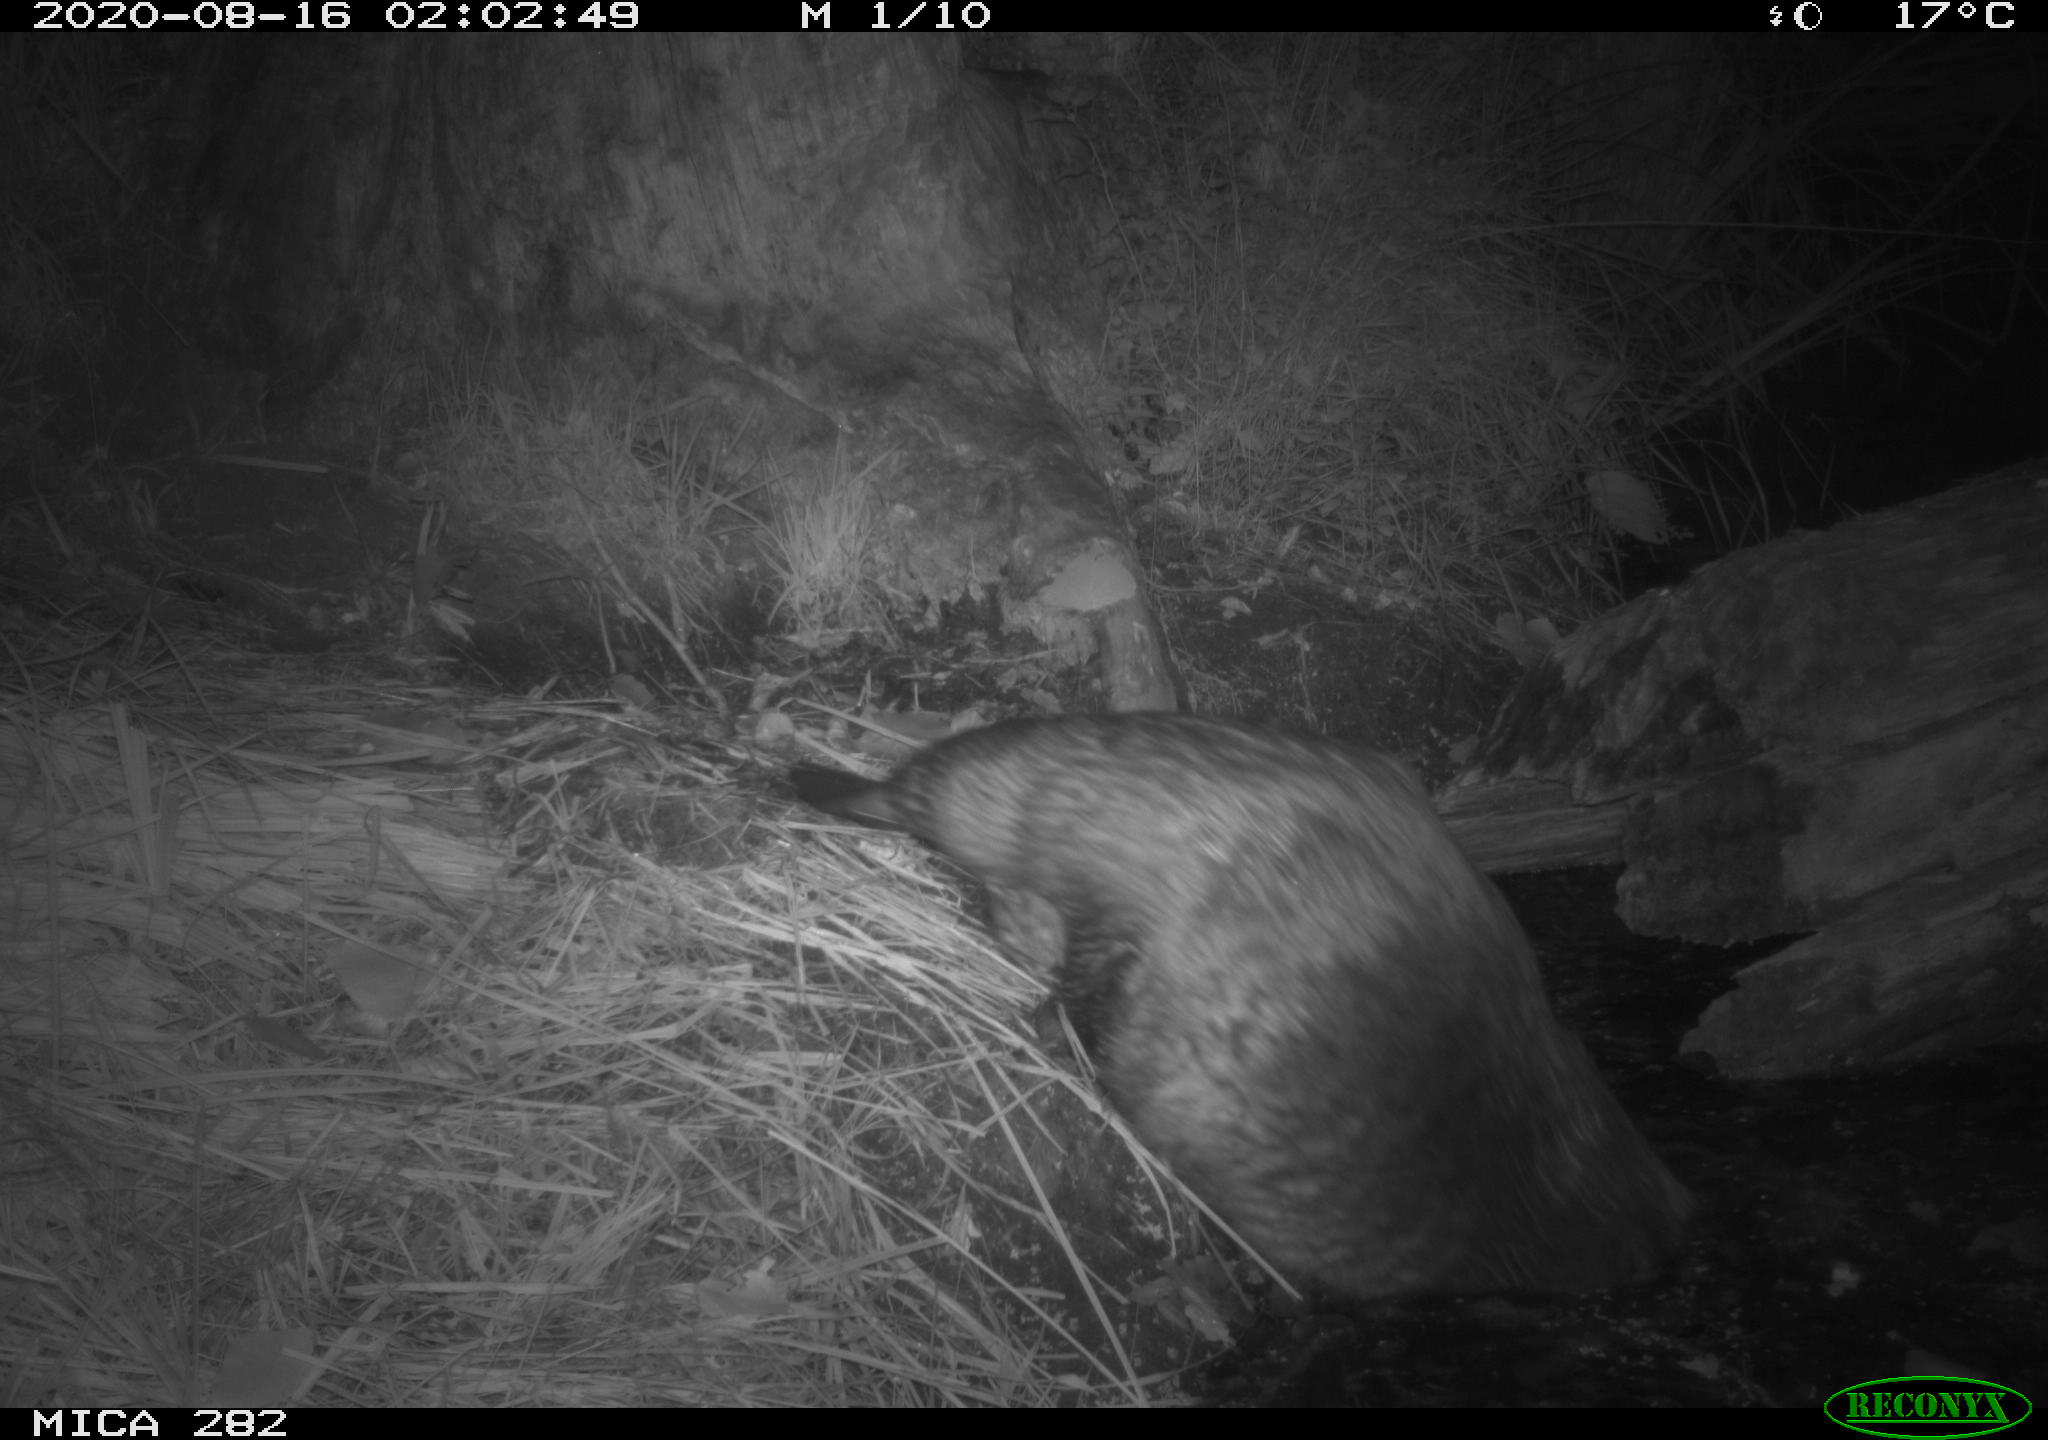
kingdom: Animalia
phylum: Chordata
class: Mammalia
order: Rodentia
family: Castoridae
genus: Castor
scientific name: Castor fiber
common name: Eurasian beaver
